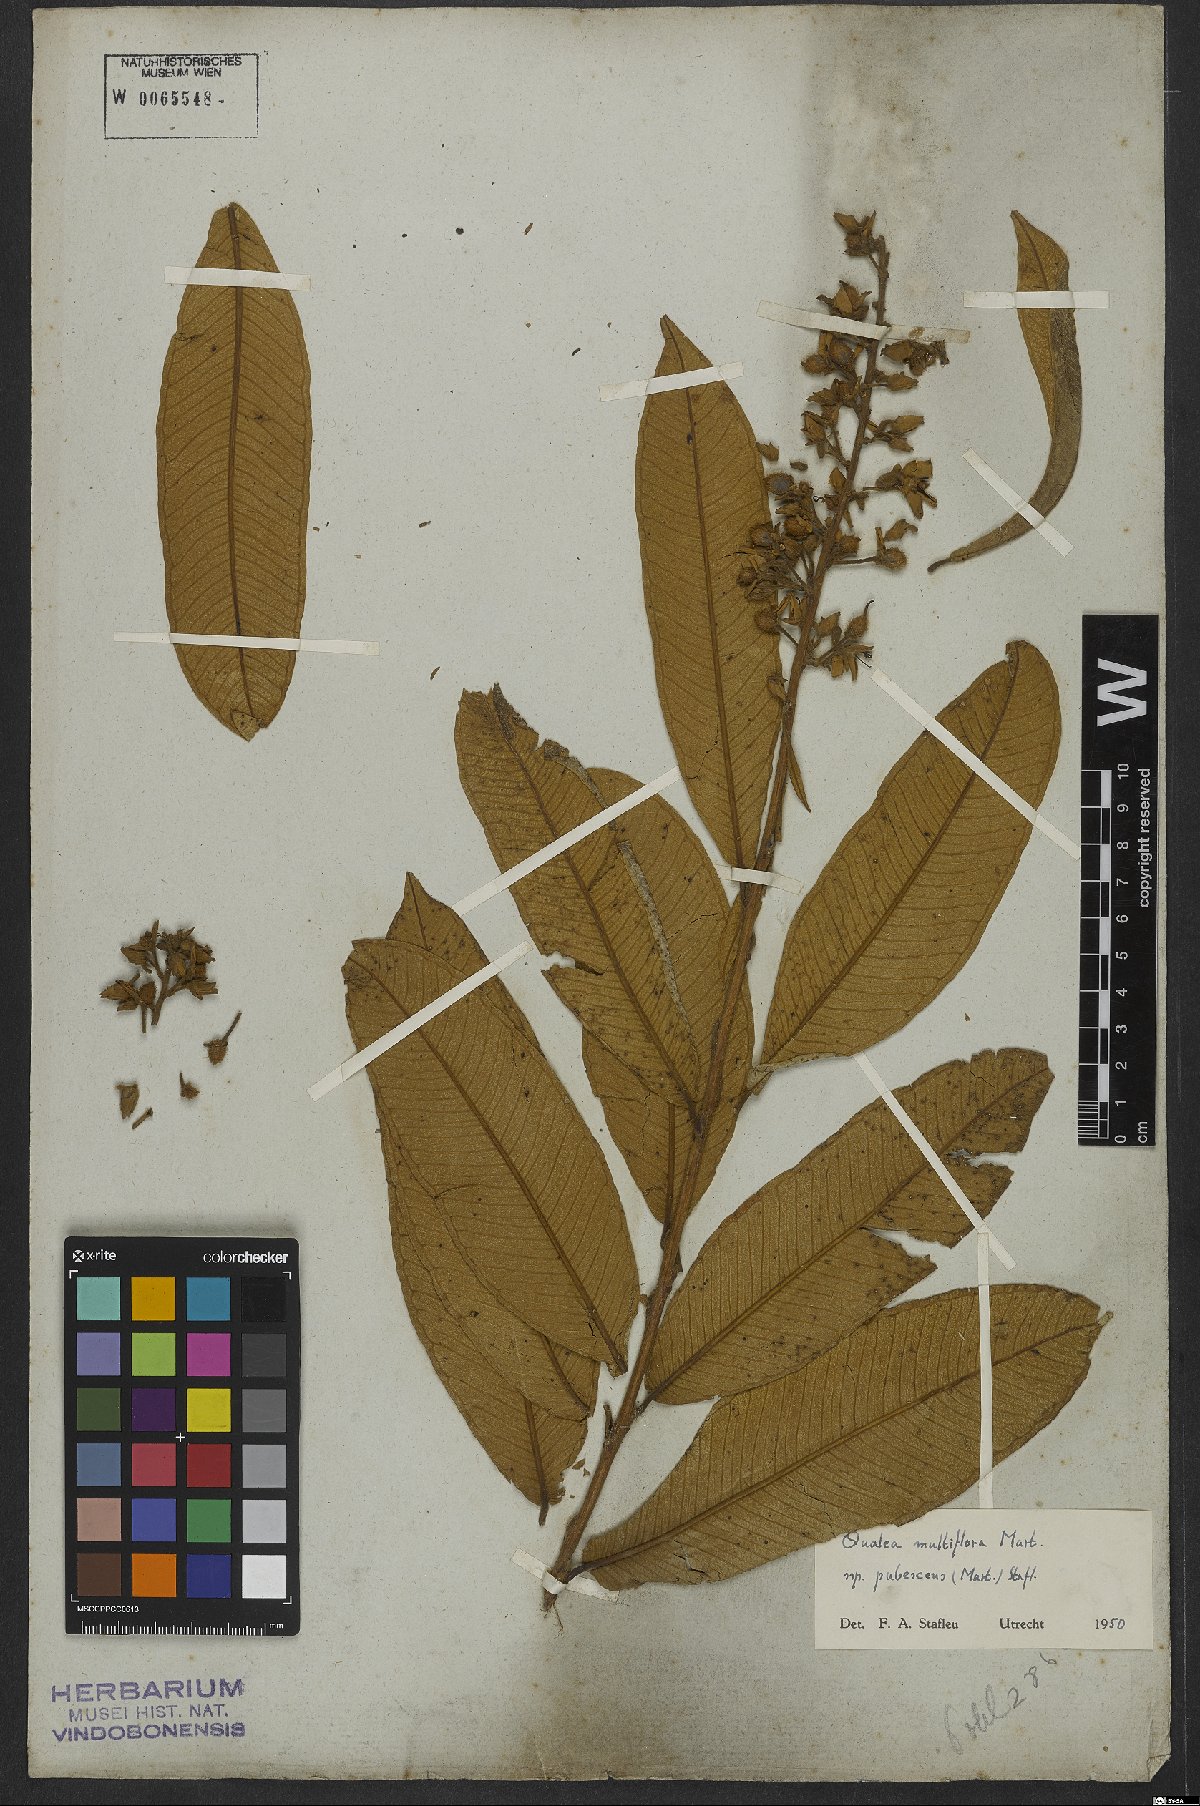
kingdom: Plantae
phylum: Tracheophyta
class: Magnoliopsida
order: Myrtales
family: Vochysiaceae
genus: Qualea
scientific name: Qualea multiflora
